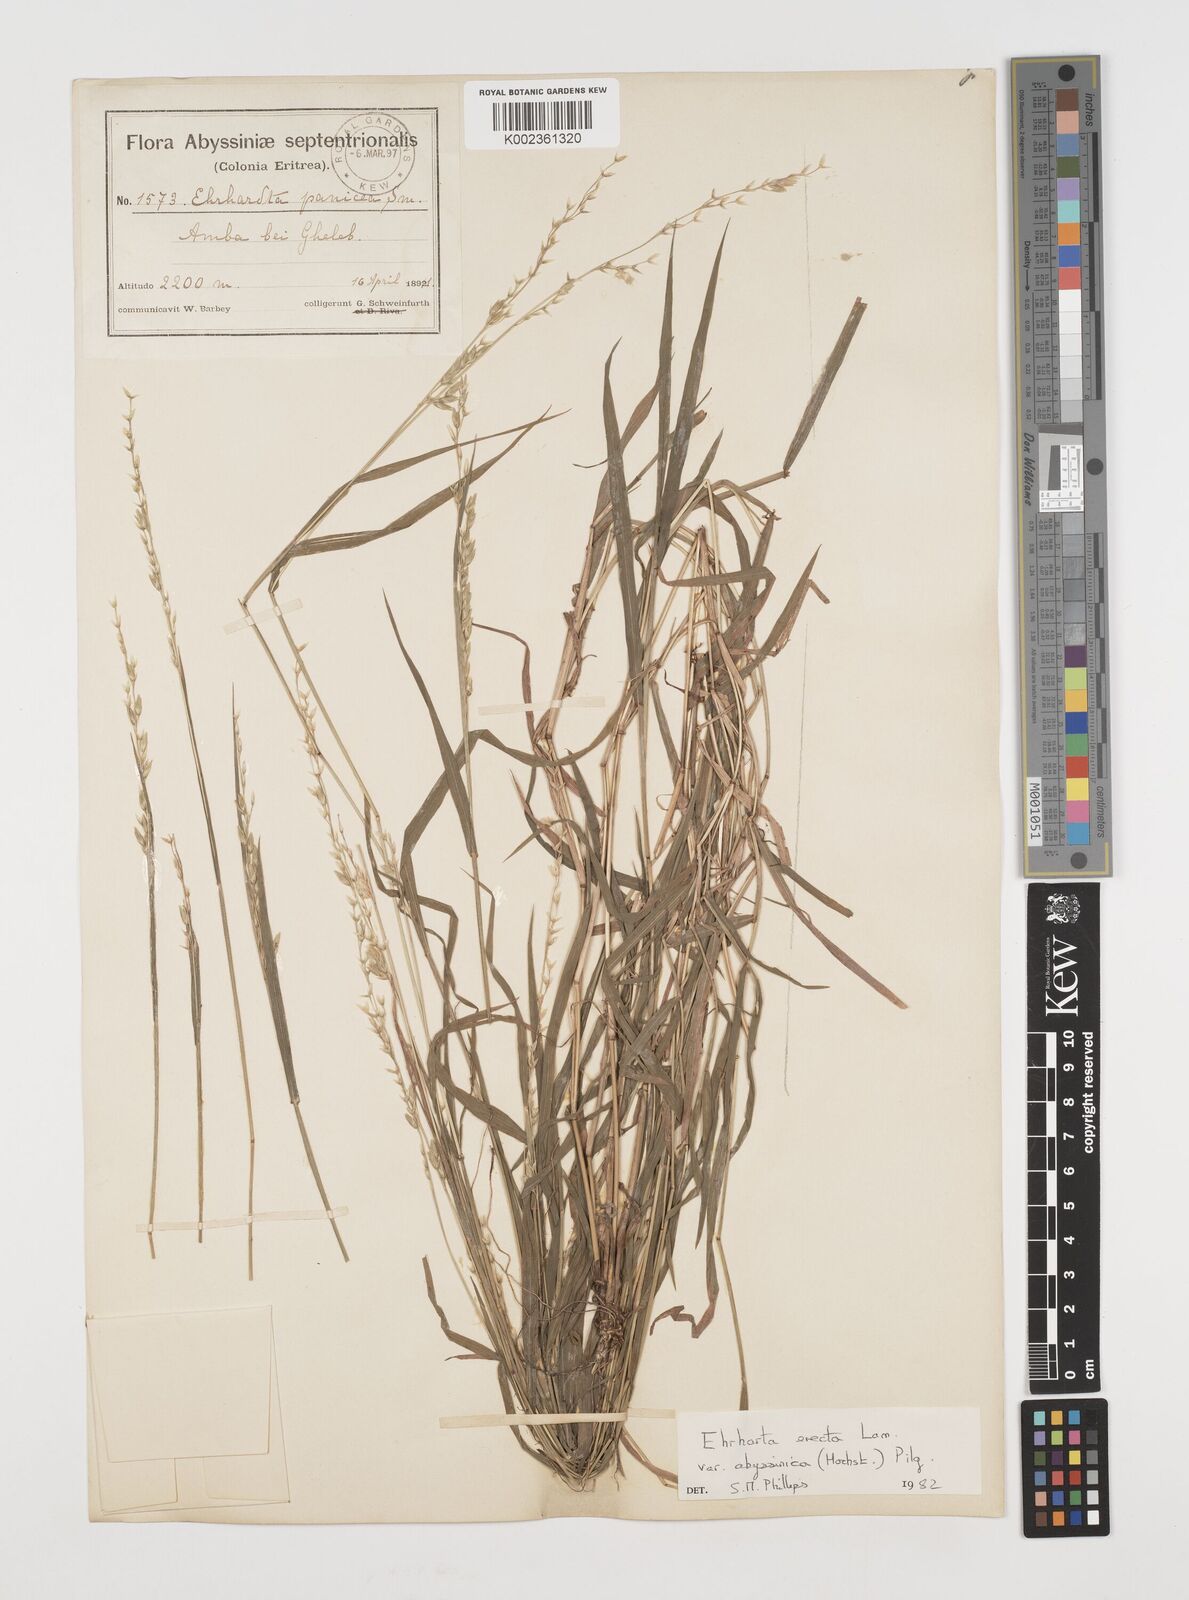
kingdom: Plantae
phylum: Tracheophyta
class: Liliopsida
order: Poales
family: Poaceae
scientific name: Poaceae
